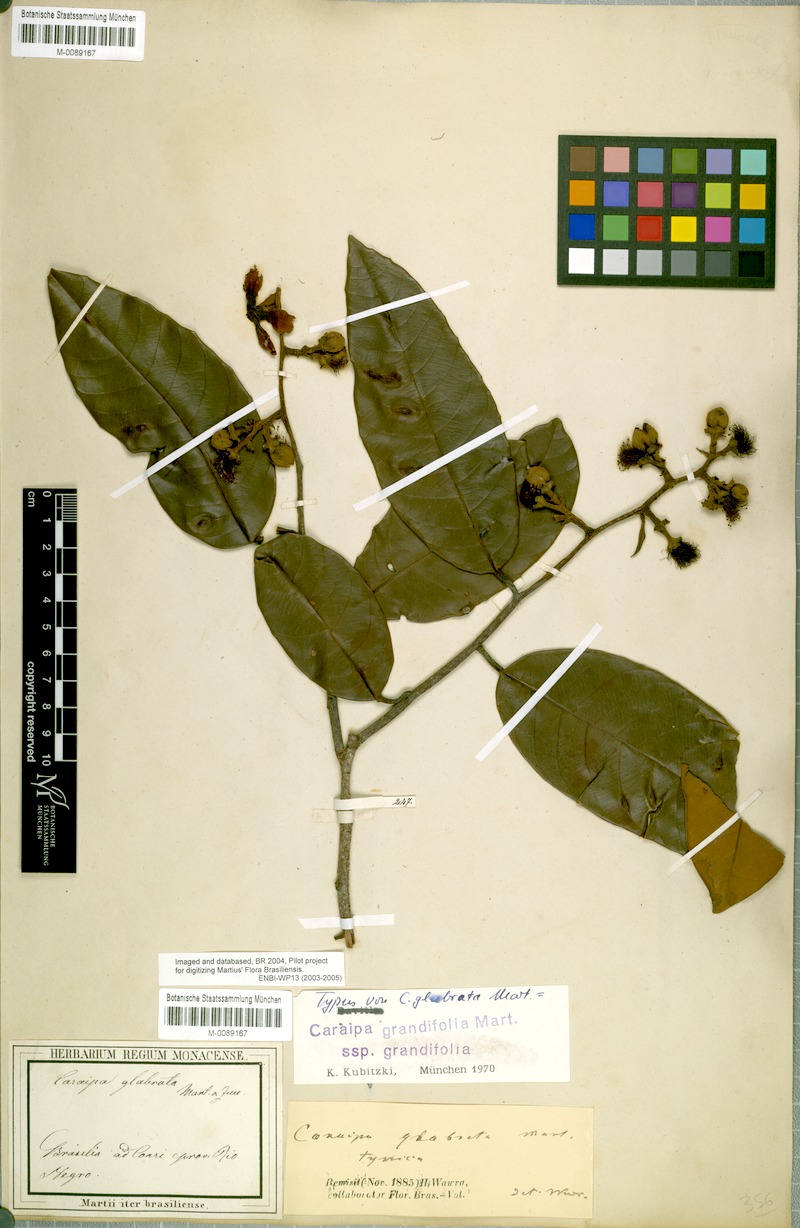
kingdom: Plantae
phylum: Tracheophyta
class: Magnoliopsida
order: Malpighiales
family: Calophyllaceae
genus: Caraipa
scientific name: Caraipa grandifolia
